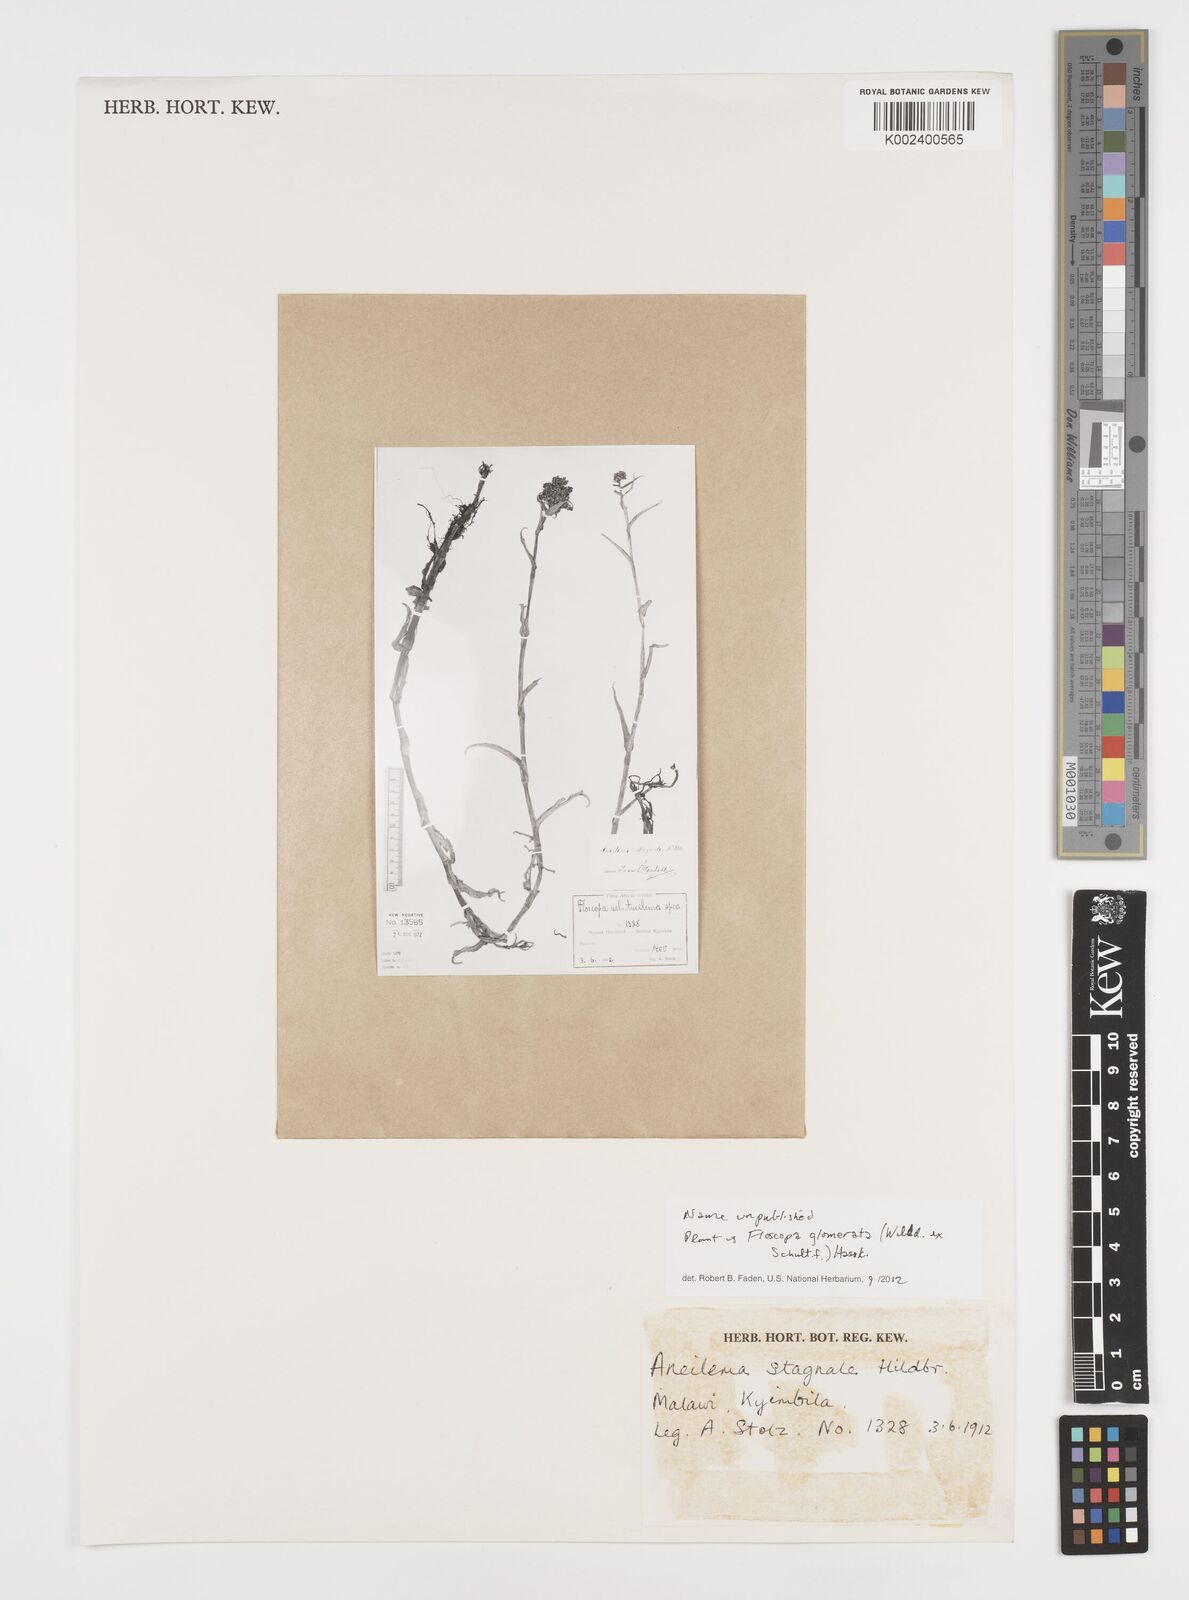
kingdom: Plantae
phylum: Tracheophyta
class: Liliopsida
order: Commelinales
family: Commelinaceae
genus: Floscopa
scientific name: Floscopa glomerata
